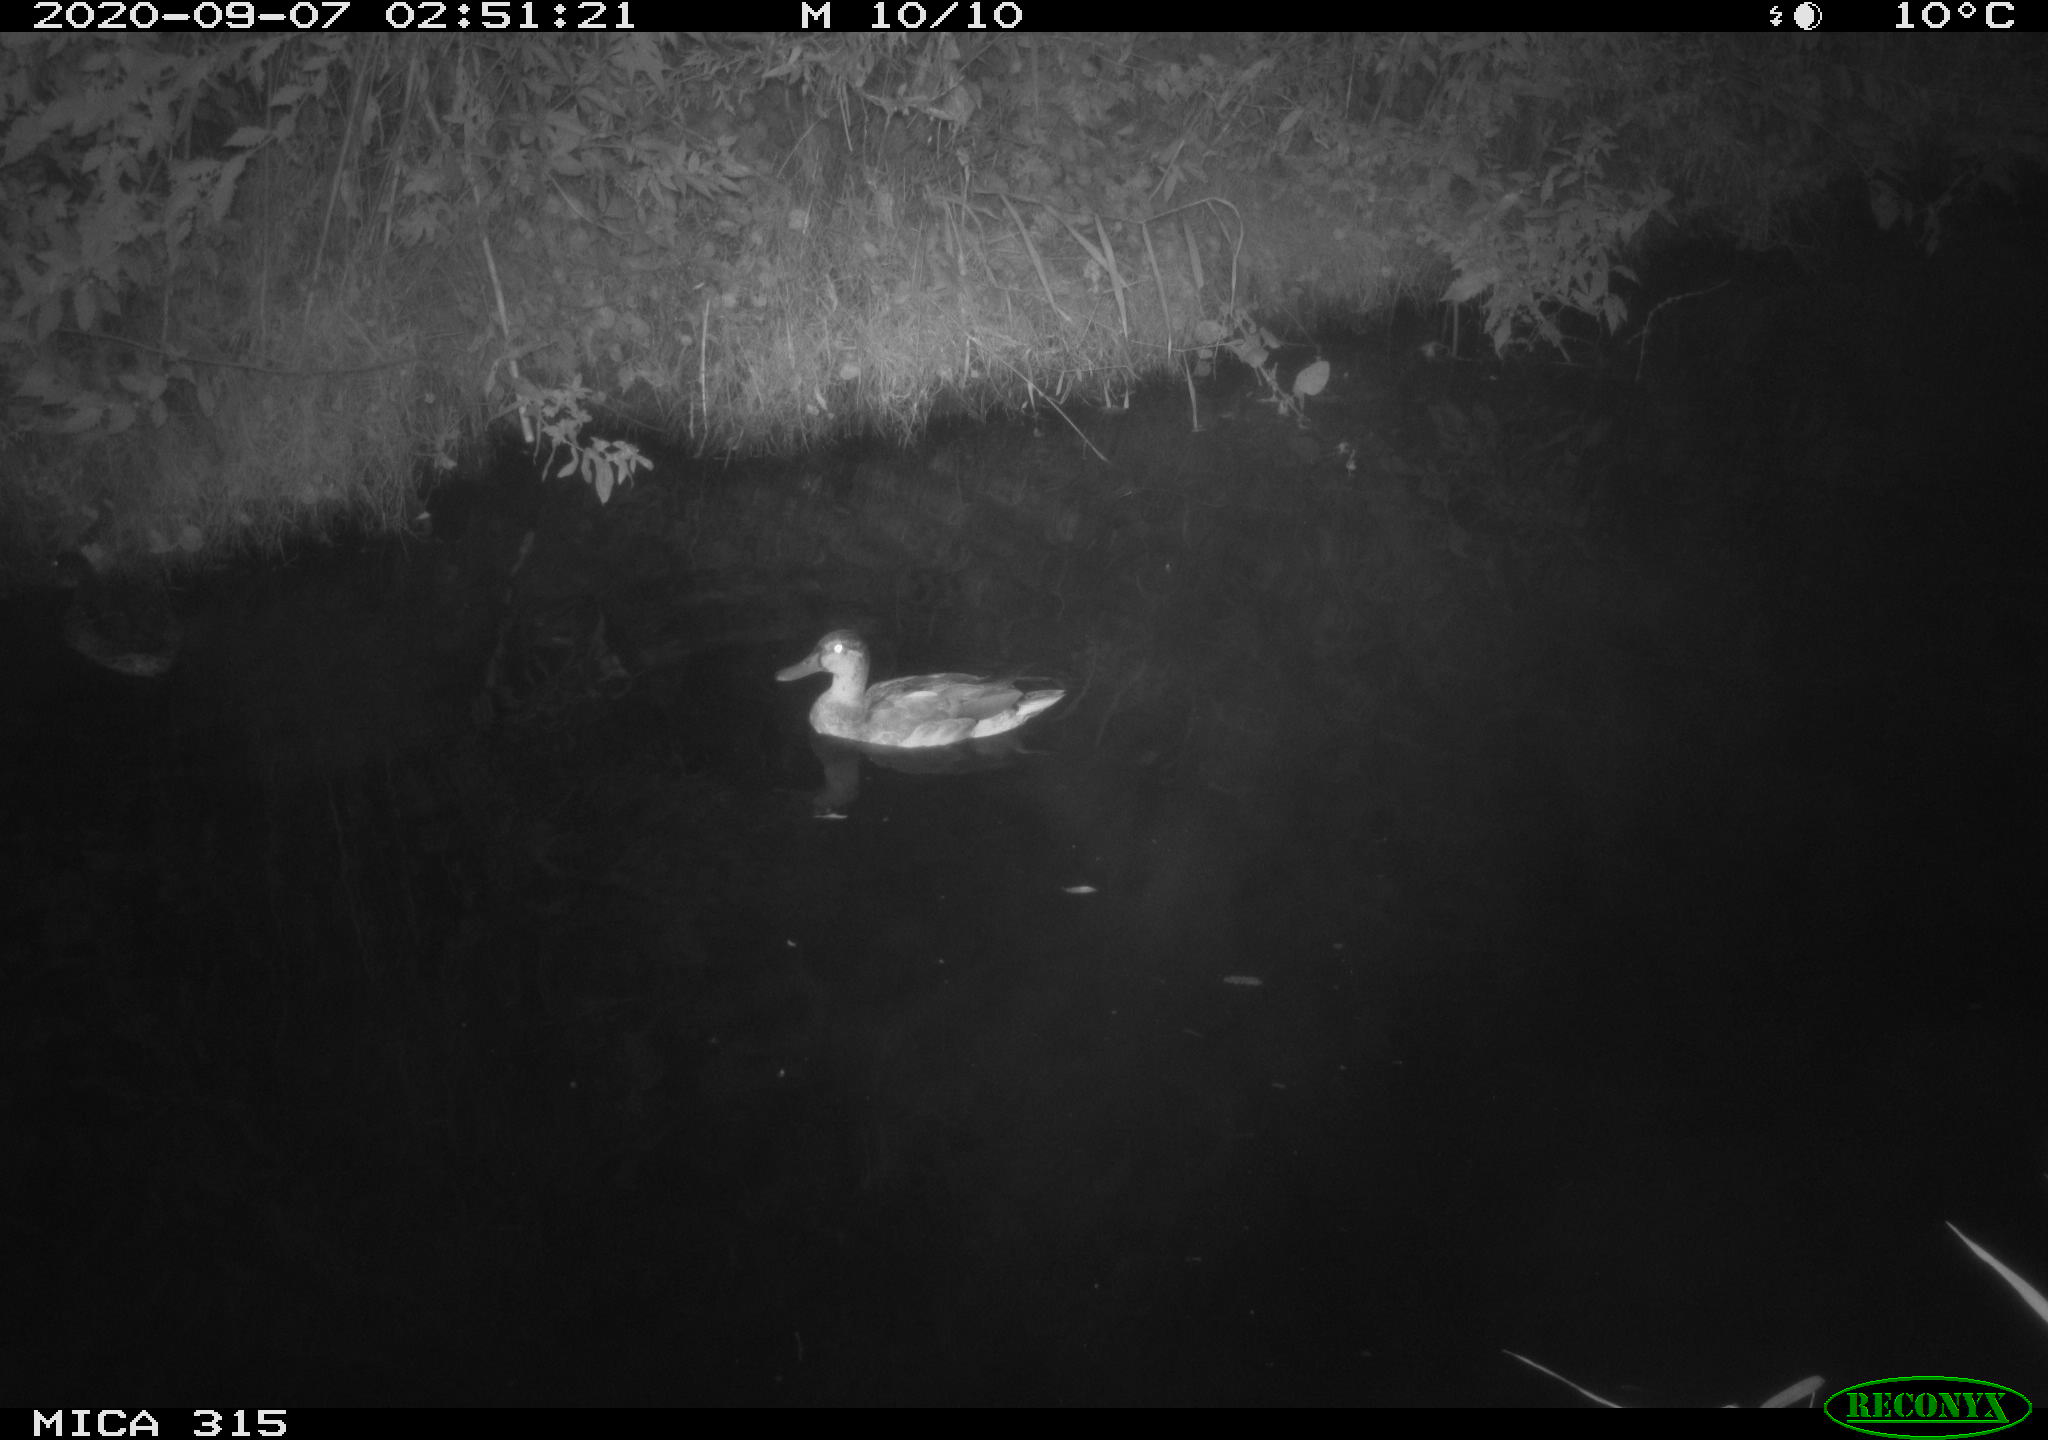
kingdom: Animalia
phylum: Chordata
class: Aves
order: Anseriformes
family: Anatidae
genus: Anas
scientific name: Anas platyrhynchos
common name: Mallard
